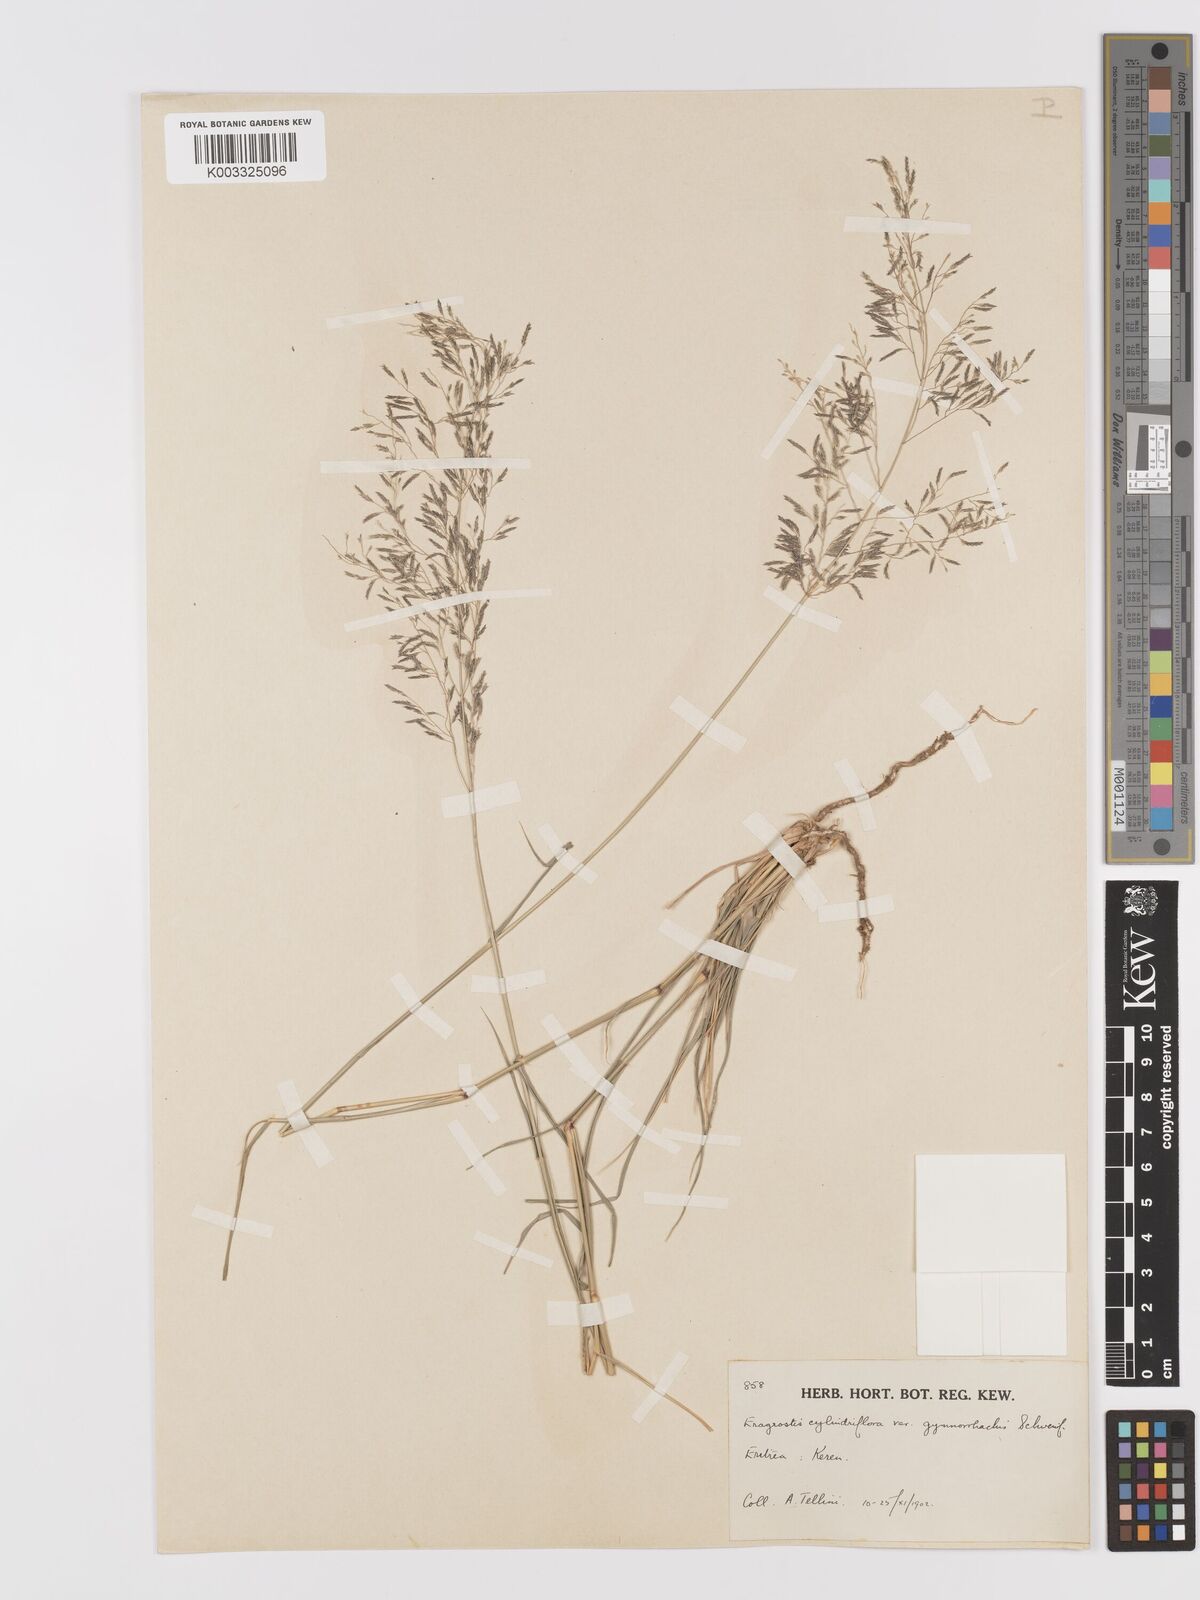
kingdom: Plantae
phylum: Tracheophyta
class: Liliopsida
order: Poales
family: Poaceae
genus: Eragrostis
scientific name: Eragrostis cylindriflora
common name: Cylinderflower lovegrass
